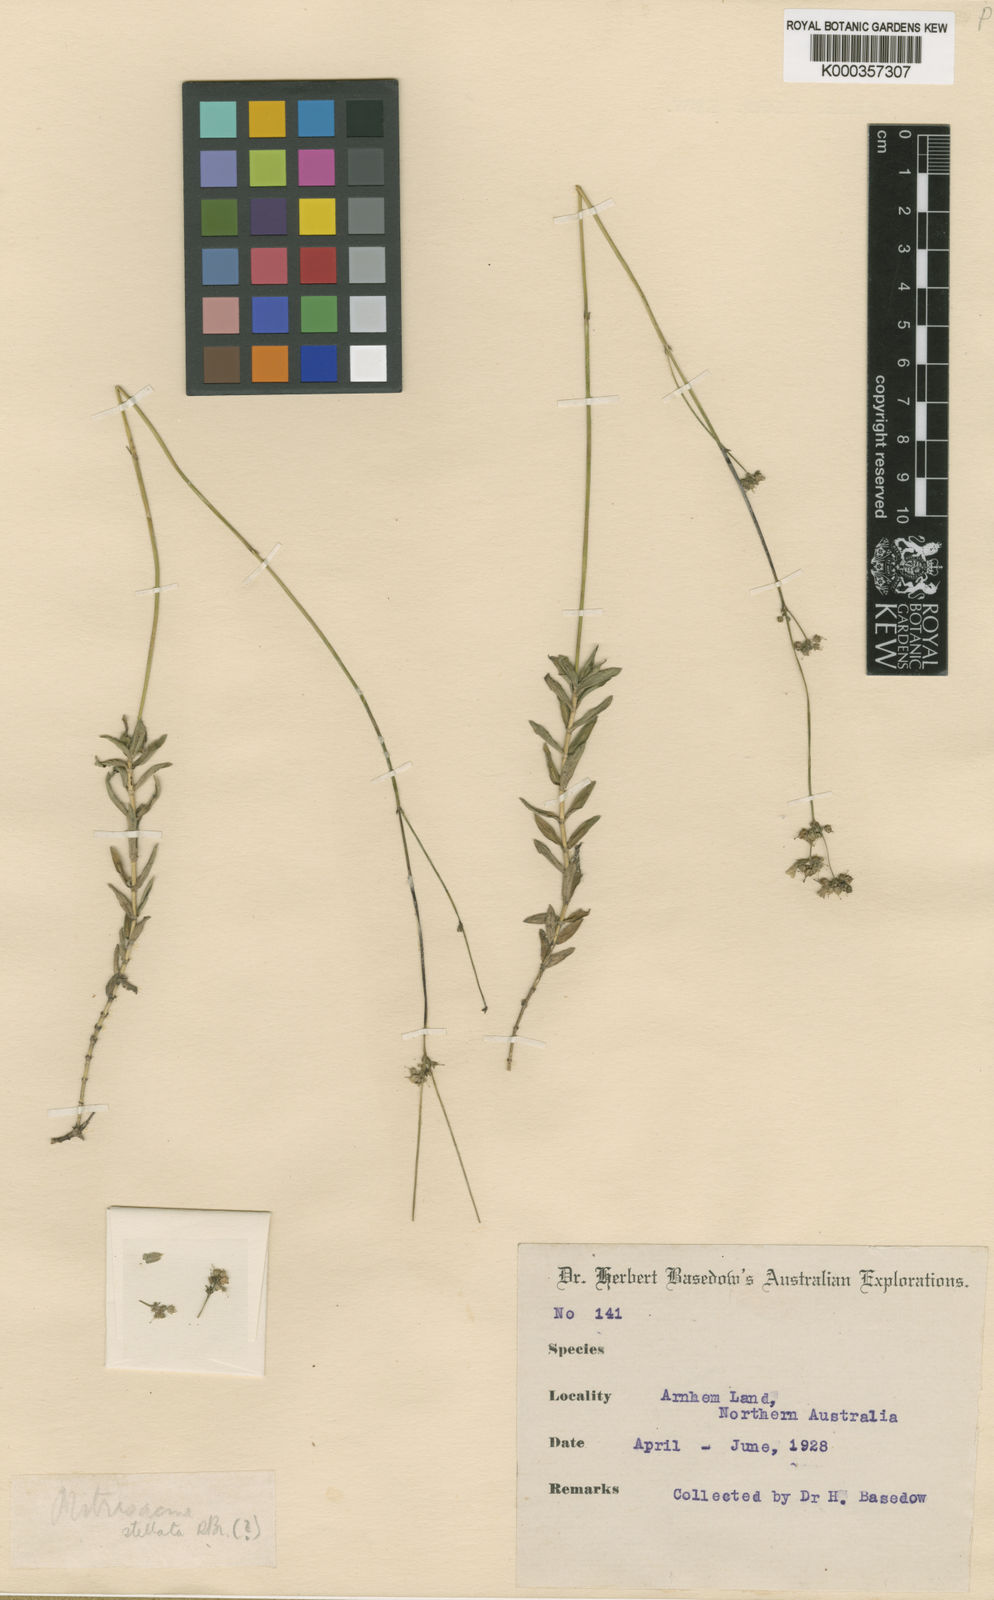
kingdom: Plantae
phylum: Tracheophyta
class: Magnoliopsida
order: Gentianales
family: Loganiaceae
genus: Mitrasacme
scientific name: Mitrasacme stellata
